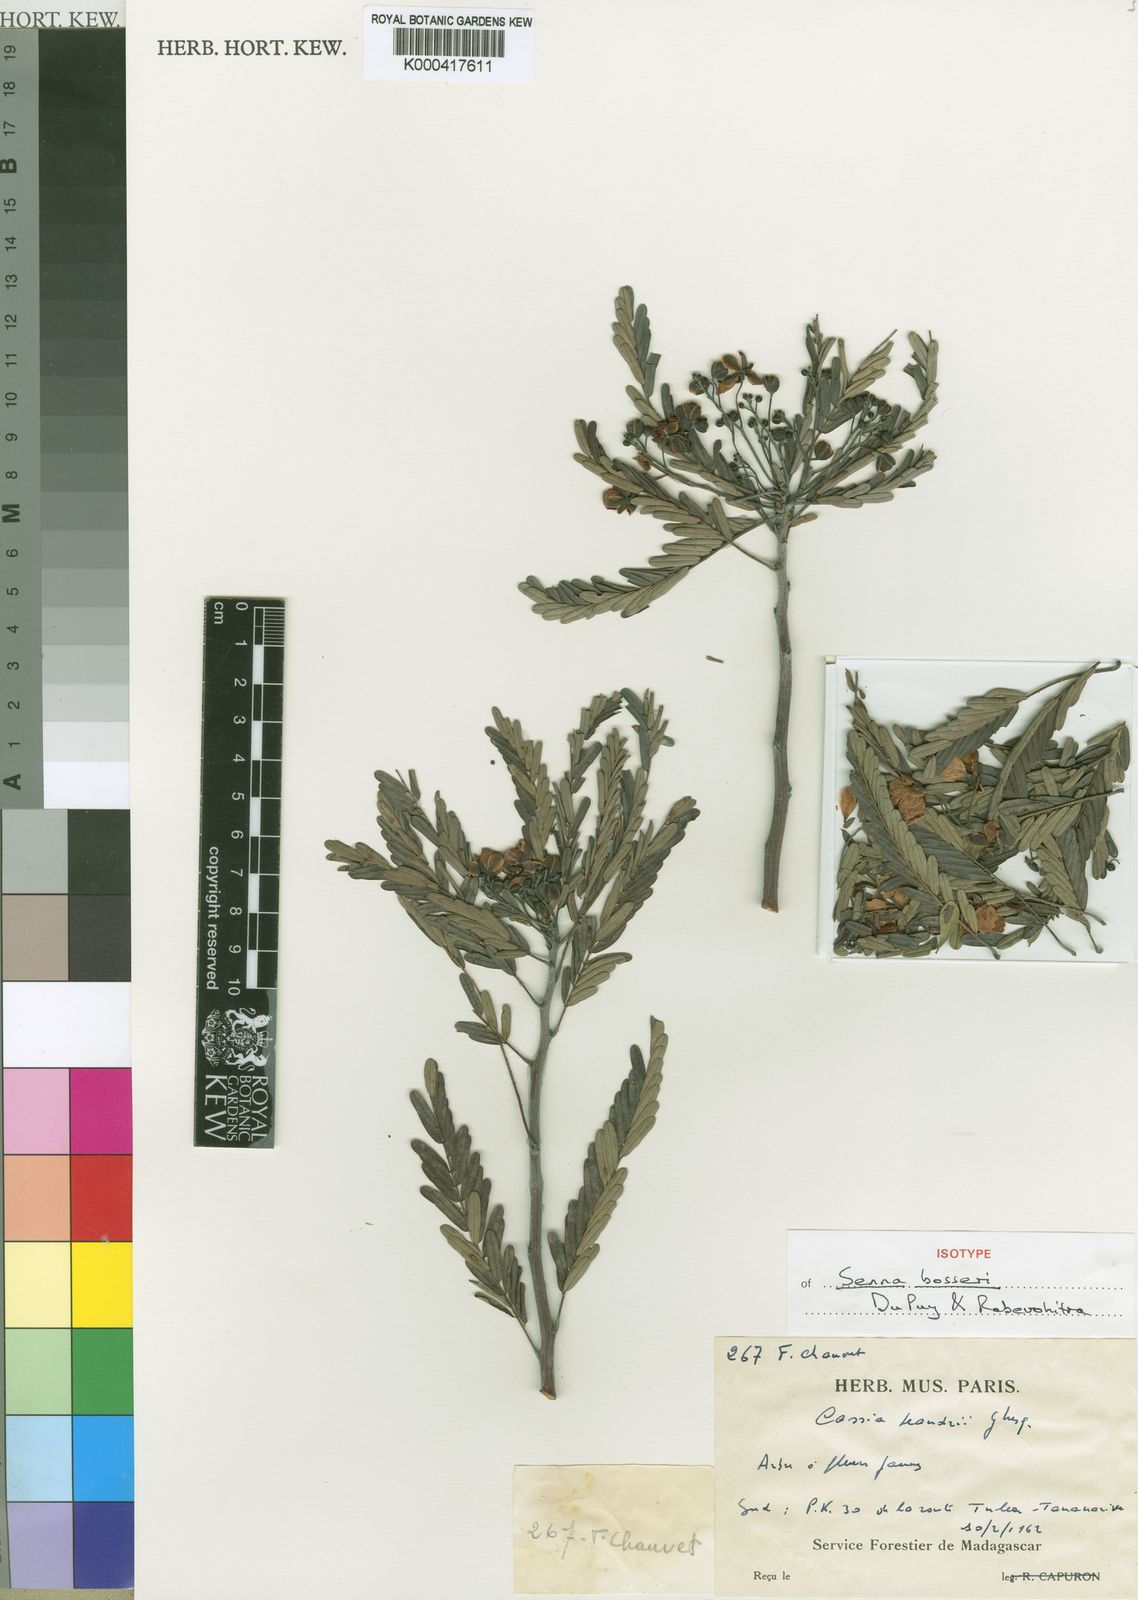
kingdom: Plantae
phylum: Tracheophyta
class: Magnoliopsida
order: Fabales
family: Fabaceae
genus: Senna
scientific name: Senna bosseri
